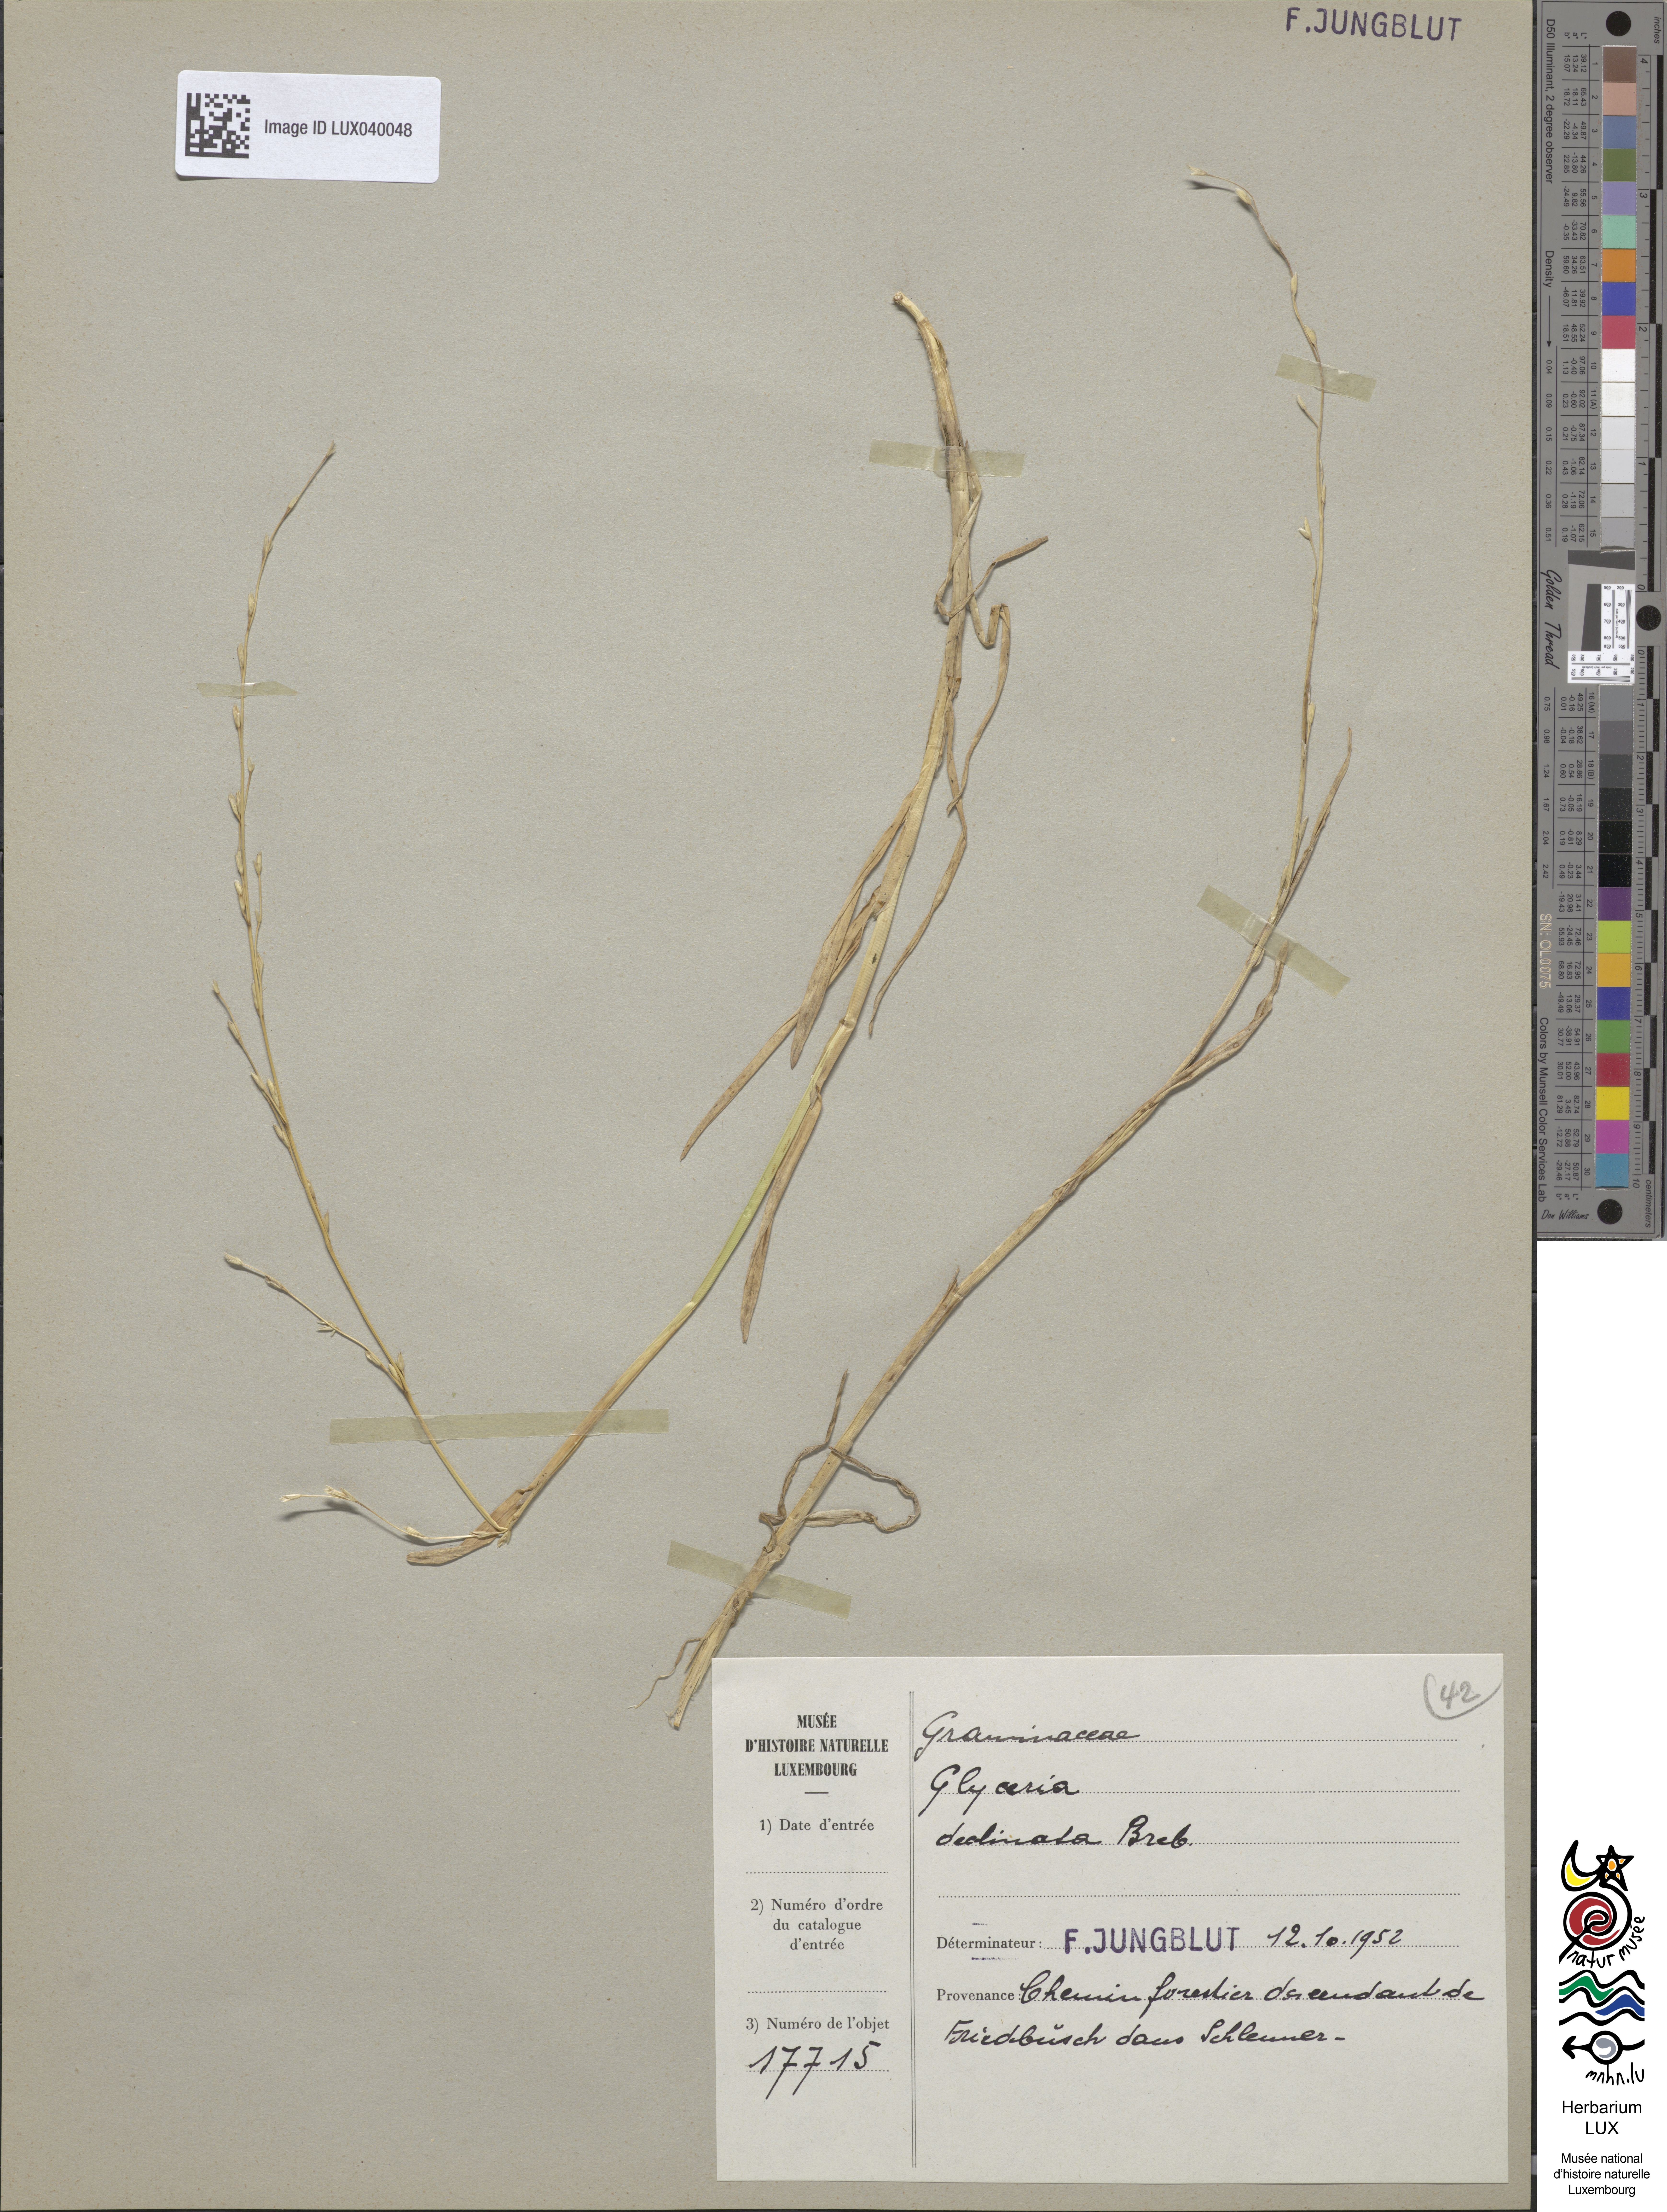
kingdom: Plantae
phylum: Tracheophyta
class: Liliopsida
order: Poales
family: Poaceae
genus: Glyceria
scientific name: Glyceria declinata
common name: Small sweet-grass
